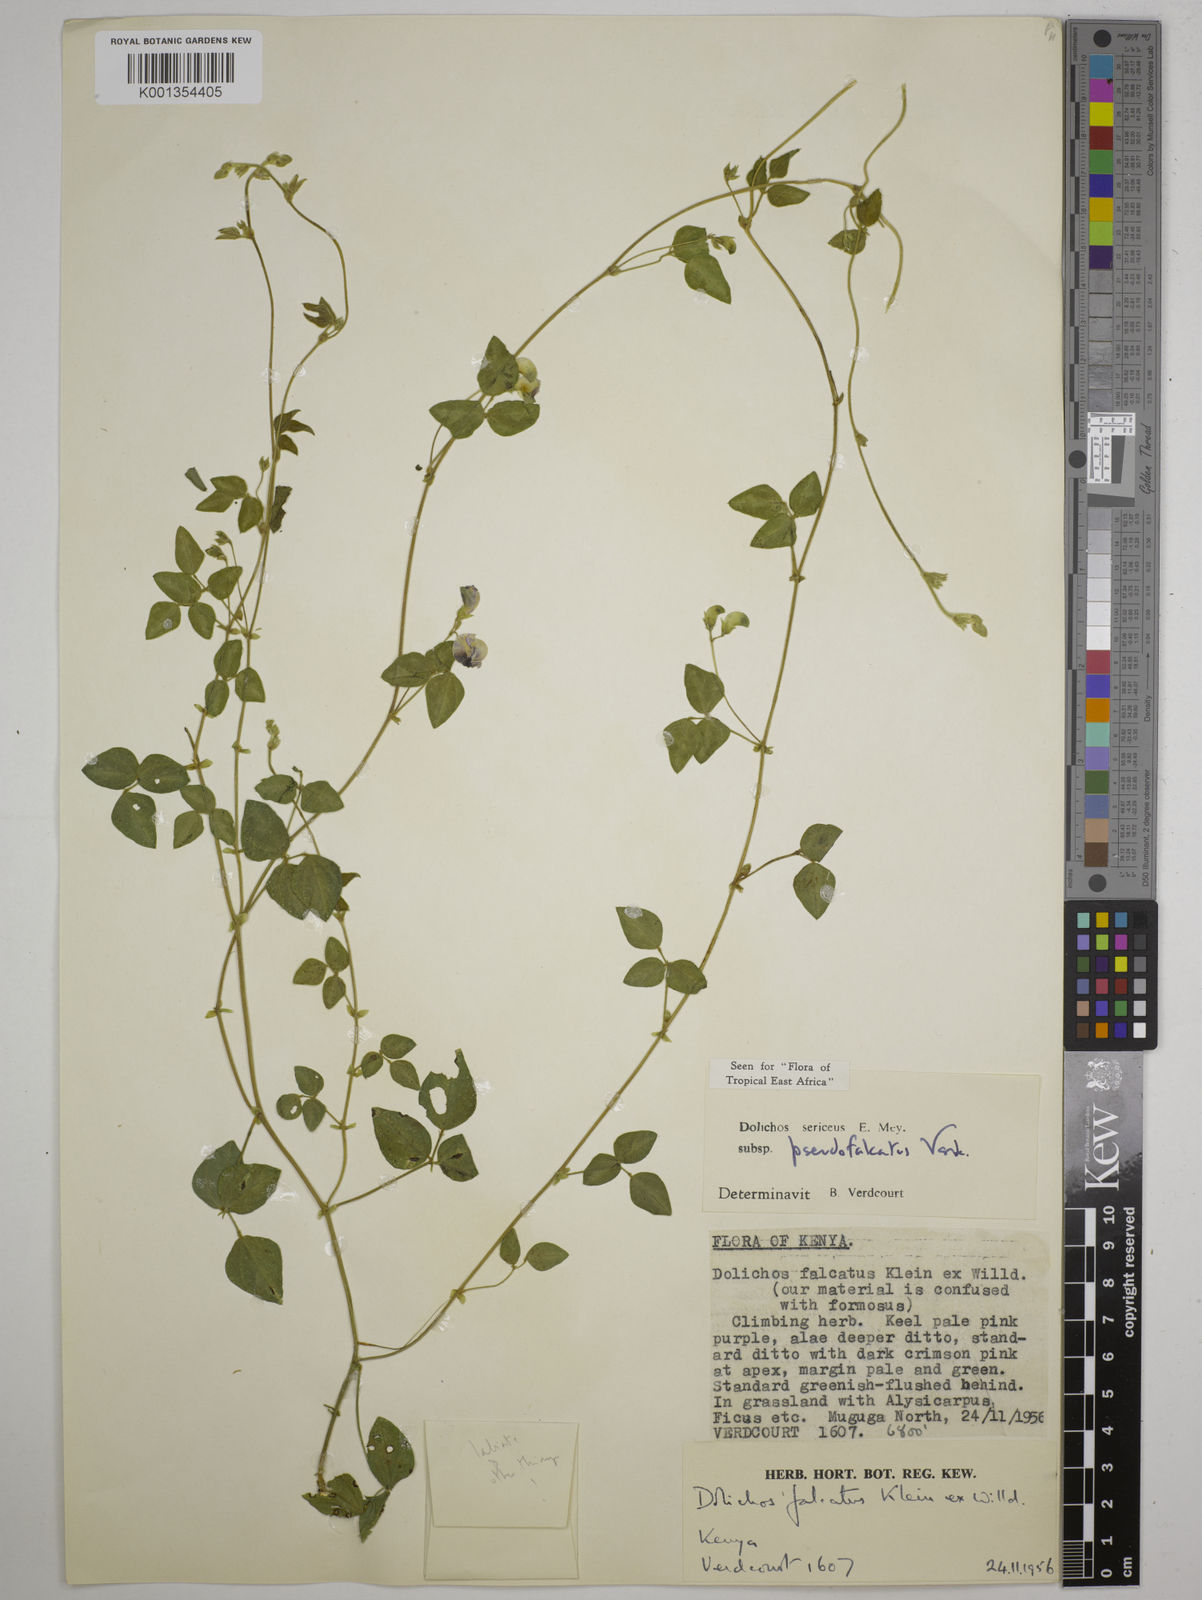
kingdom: Plantae
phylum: Tracheophyta
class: Magnoliopsida
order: Fabales
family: Fabaceae
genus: Dolichos
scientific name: Dolichos
